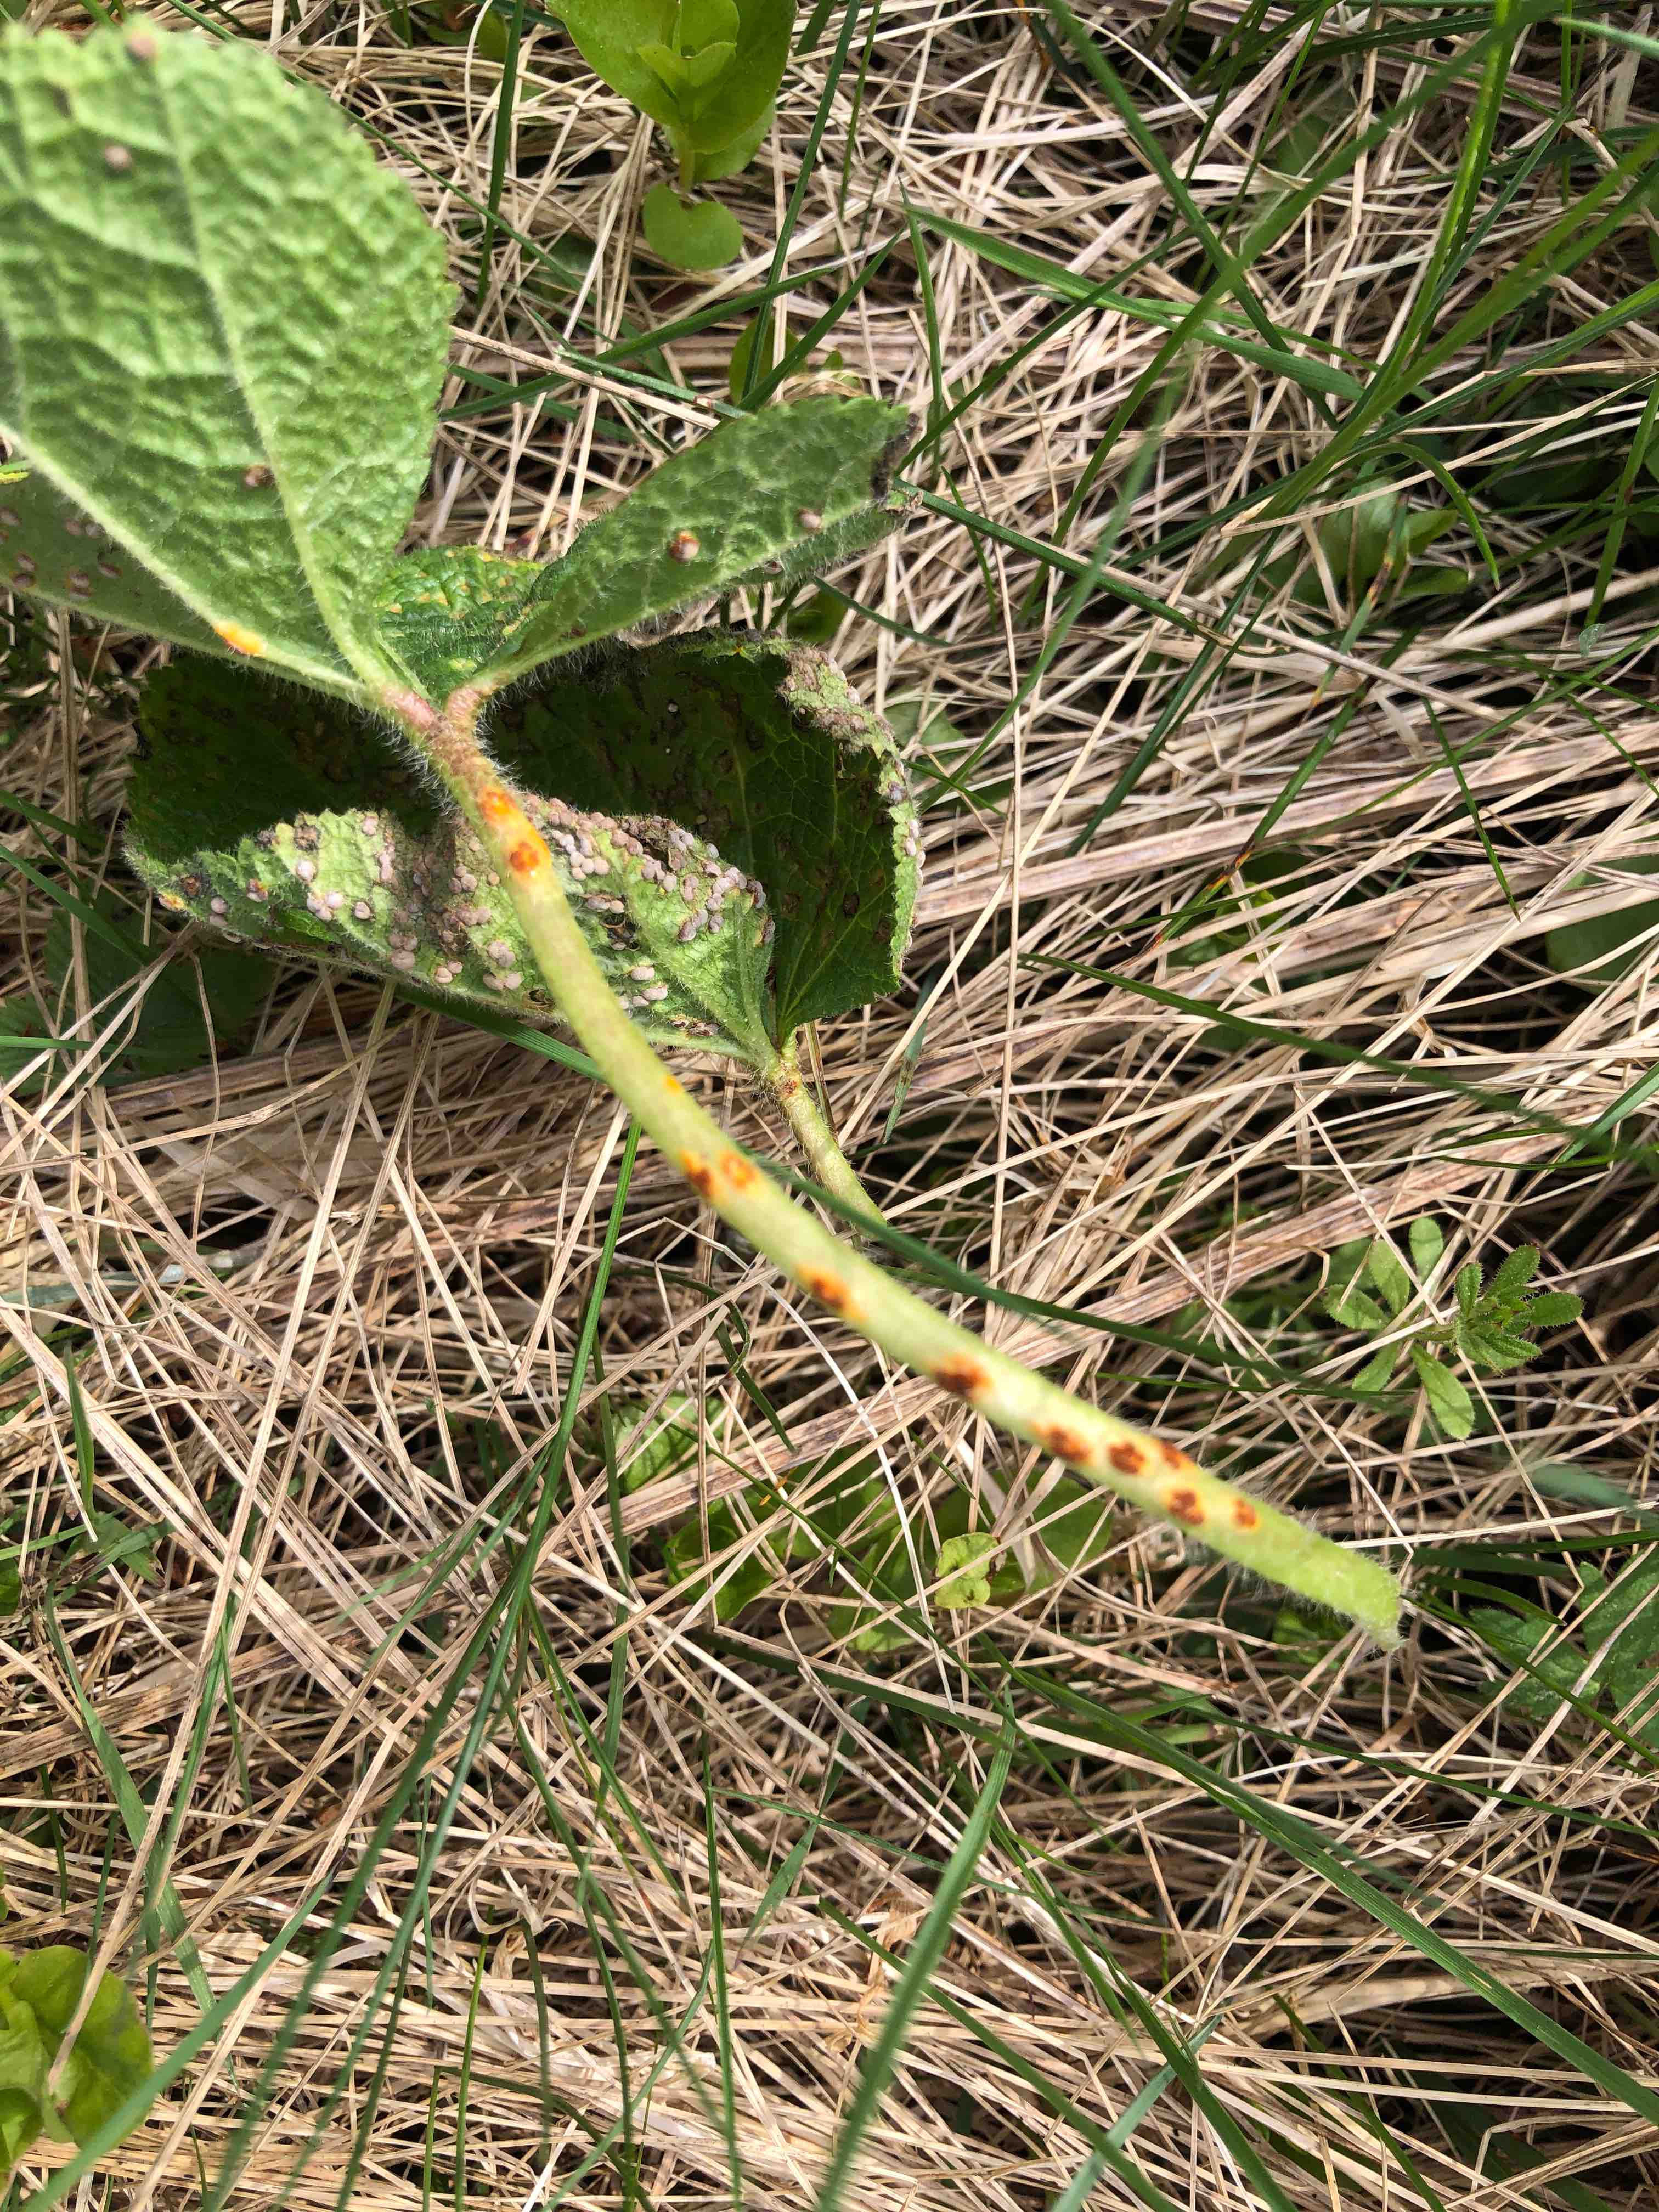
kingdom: Fungi
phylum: Basidiomycota
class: Pucciniomycetes
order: Pucciniales
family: Pucciniaceae
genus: Puccinia
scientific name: Puccinia malvacearum
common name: stokrose-tvecellerust
